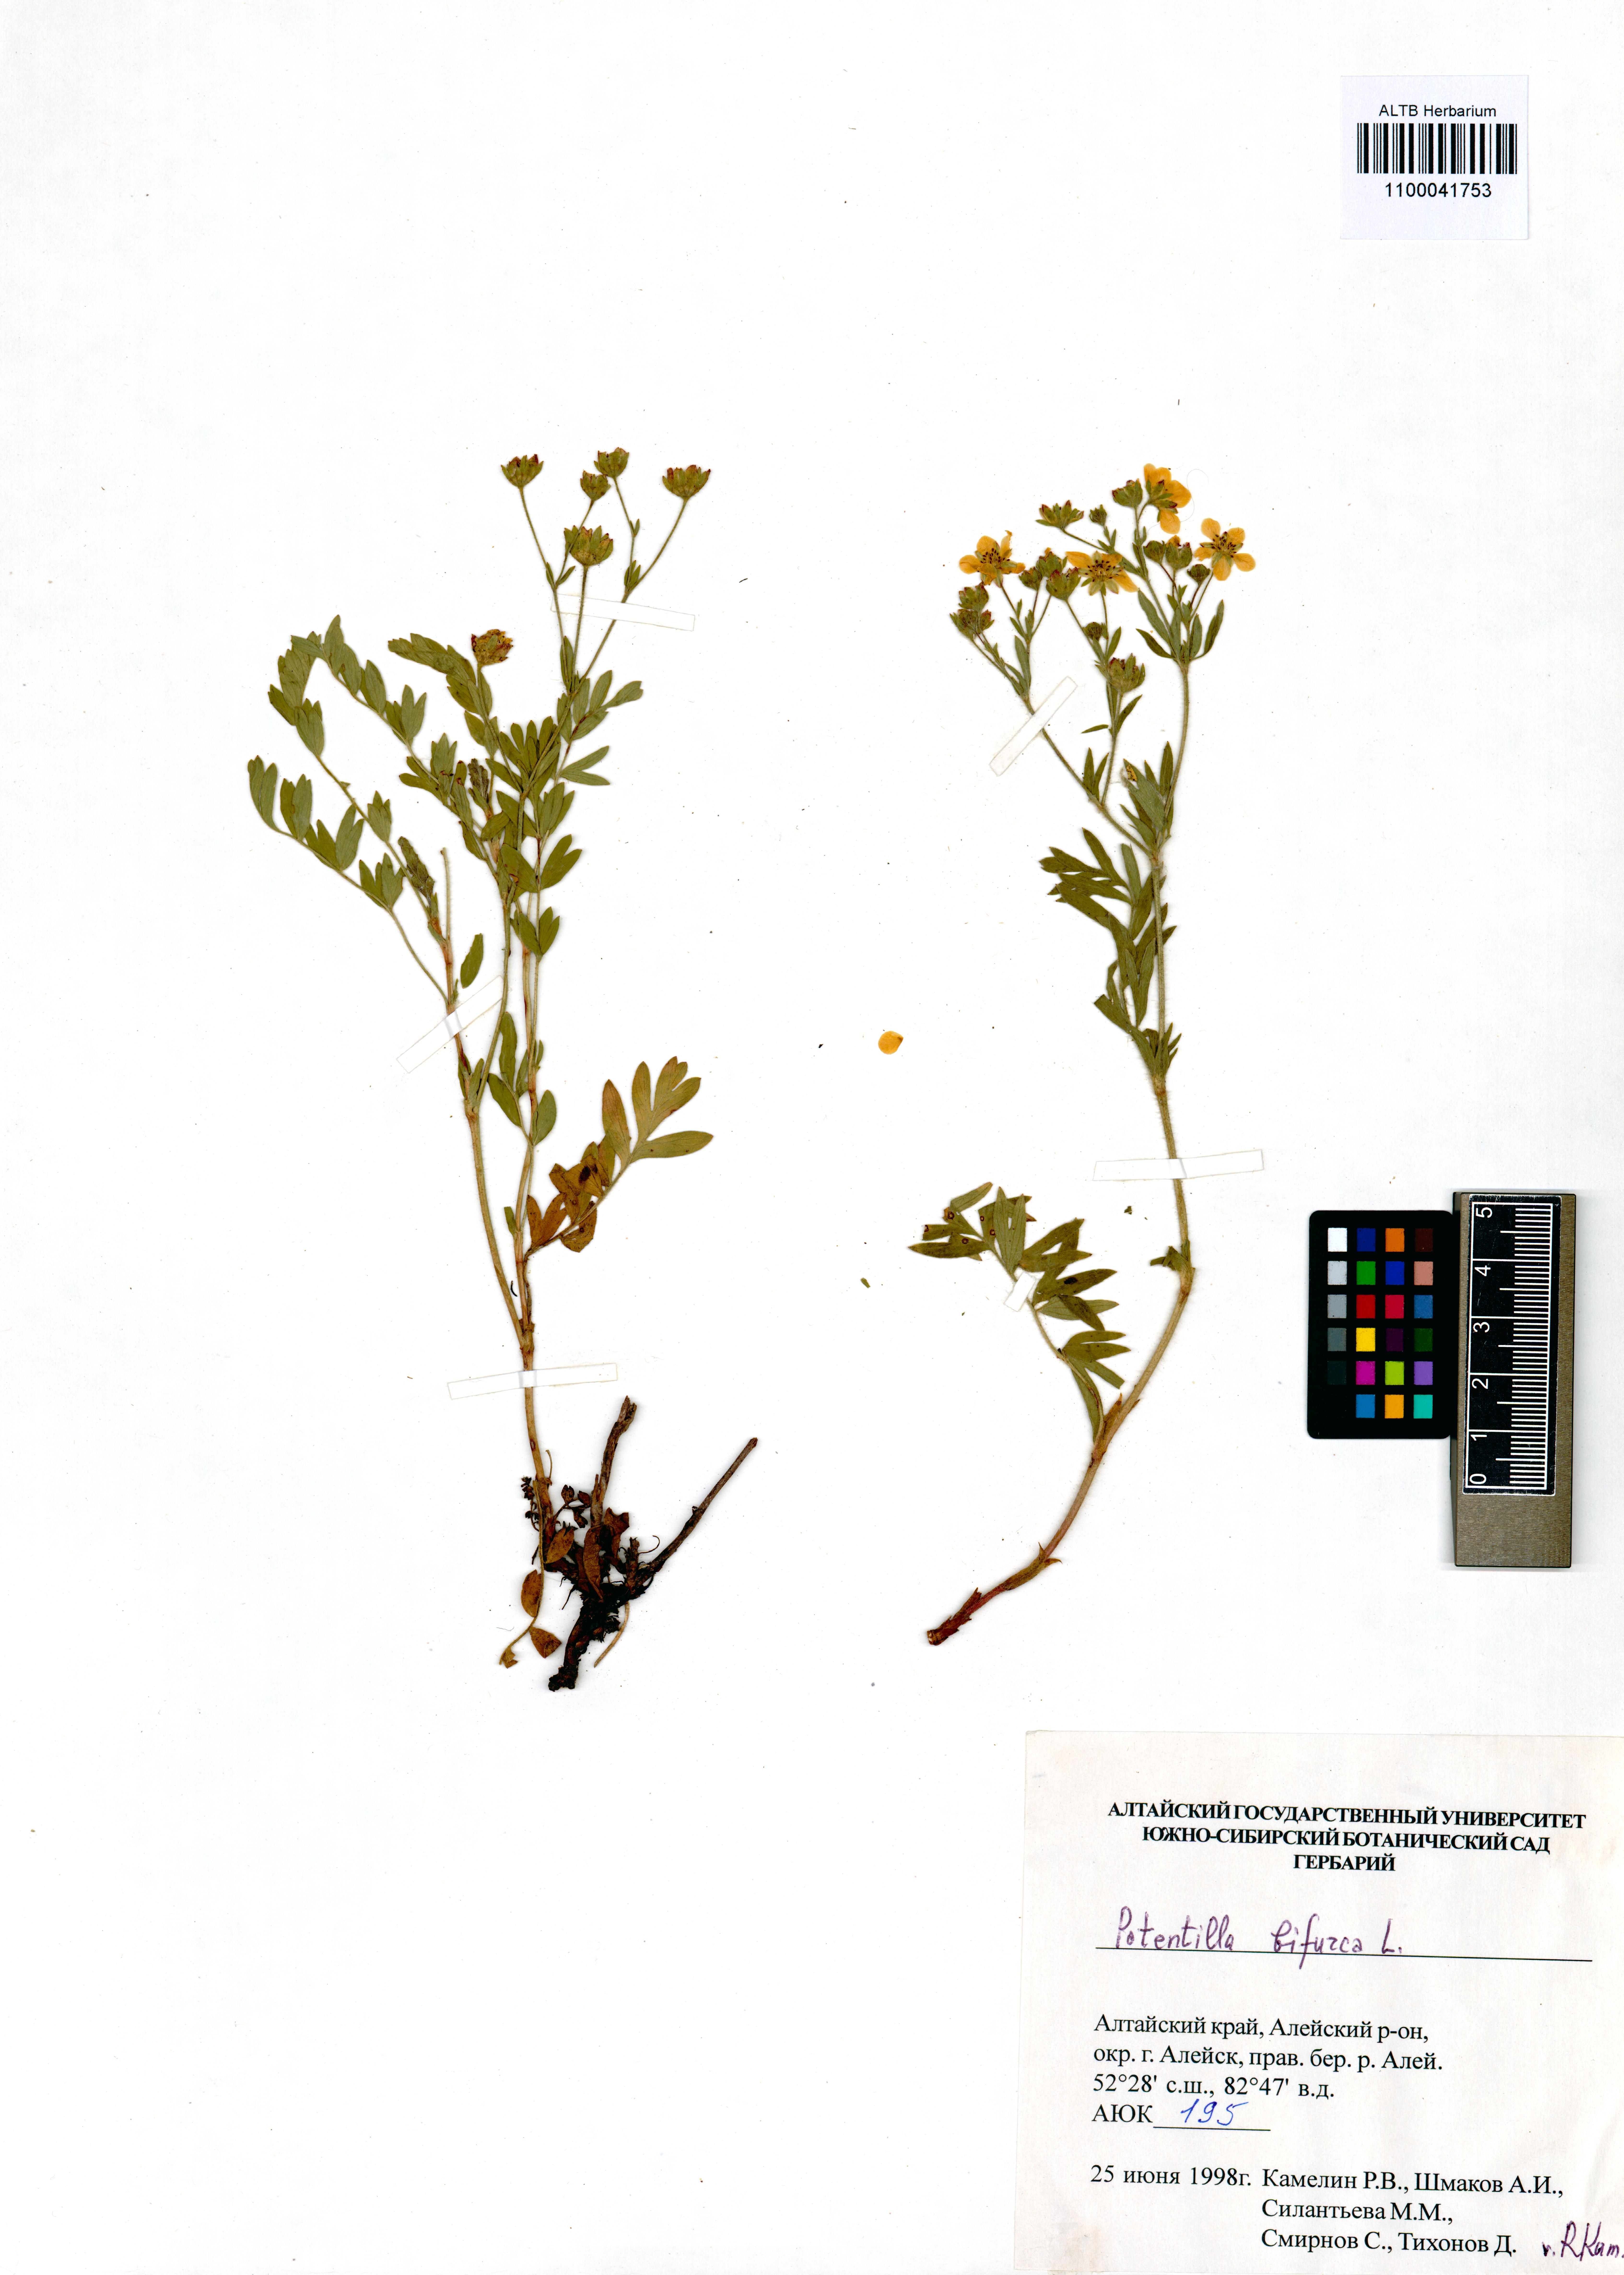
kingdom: Plantae
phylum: Tracheophyta
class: Magnoliopsida
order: Rosales
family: Rosaceae
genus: Sibbaldianthe
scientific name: Sibbaldianthe bifurca
